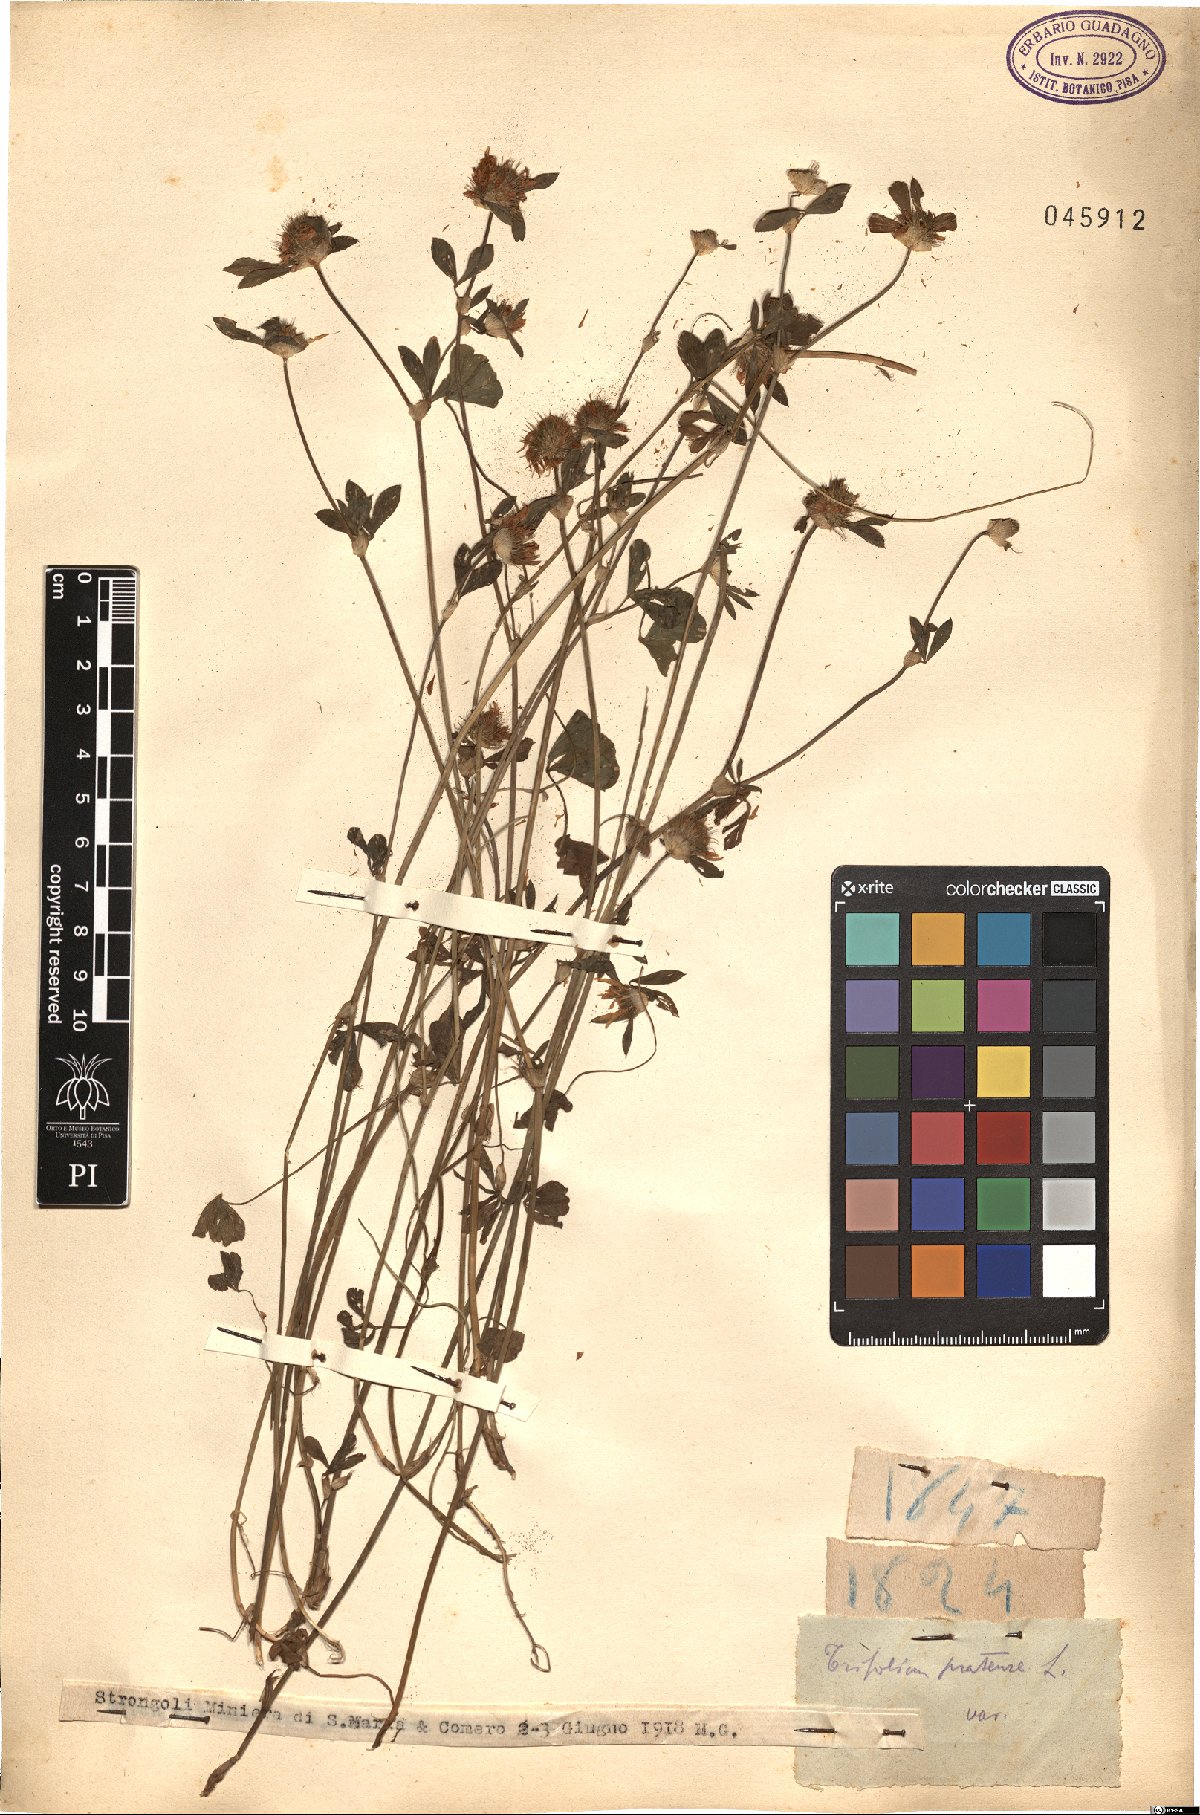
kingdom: Plantae
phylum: Tracheophyta
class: Magnoliopsida
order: Fabales
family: Fabaceae
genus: Trifolium
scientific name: Trifolium pratense
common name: Red clover
